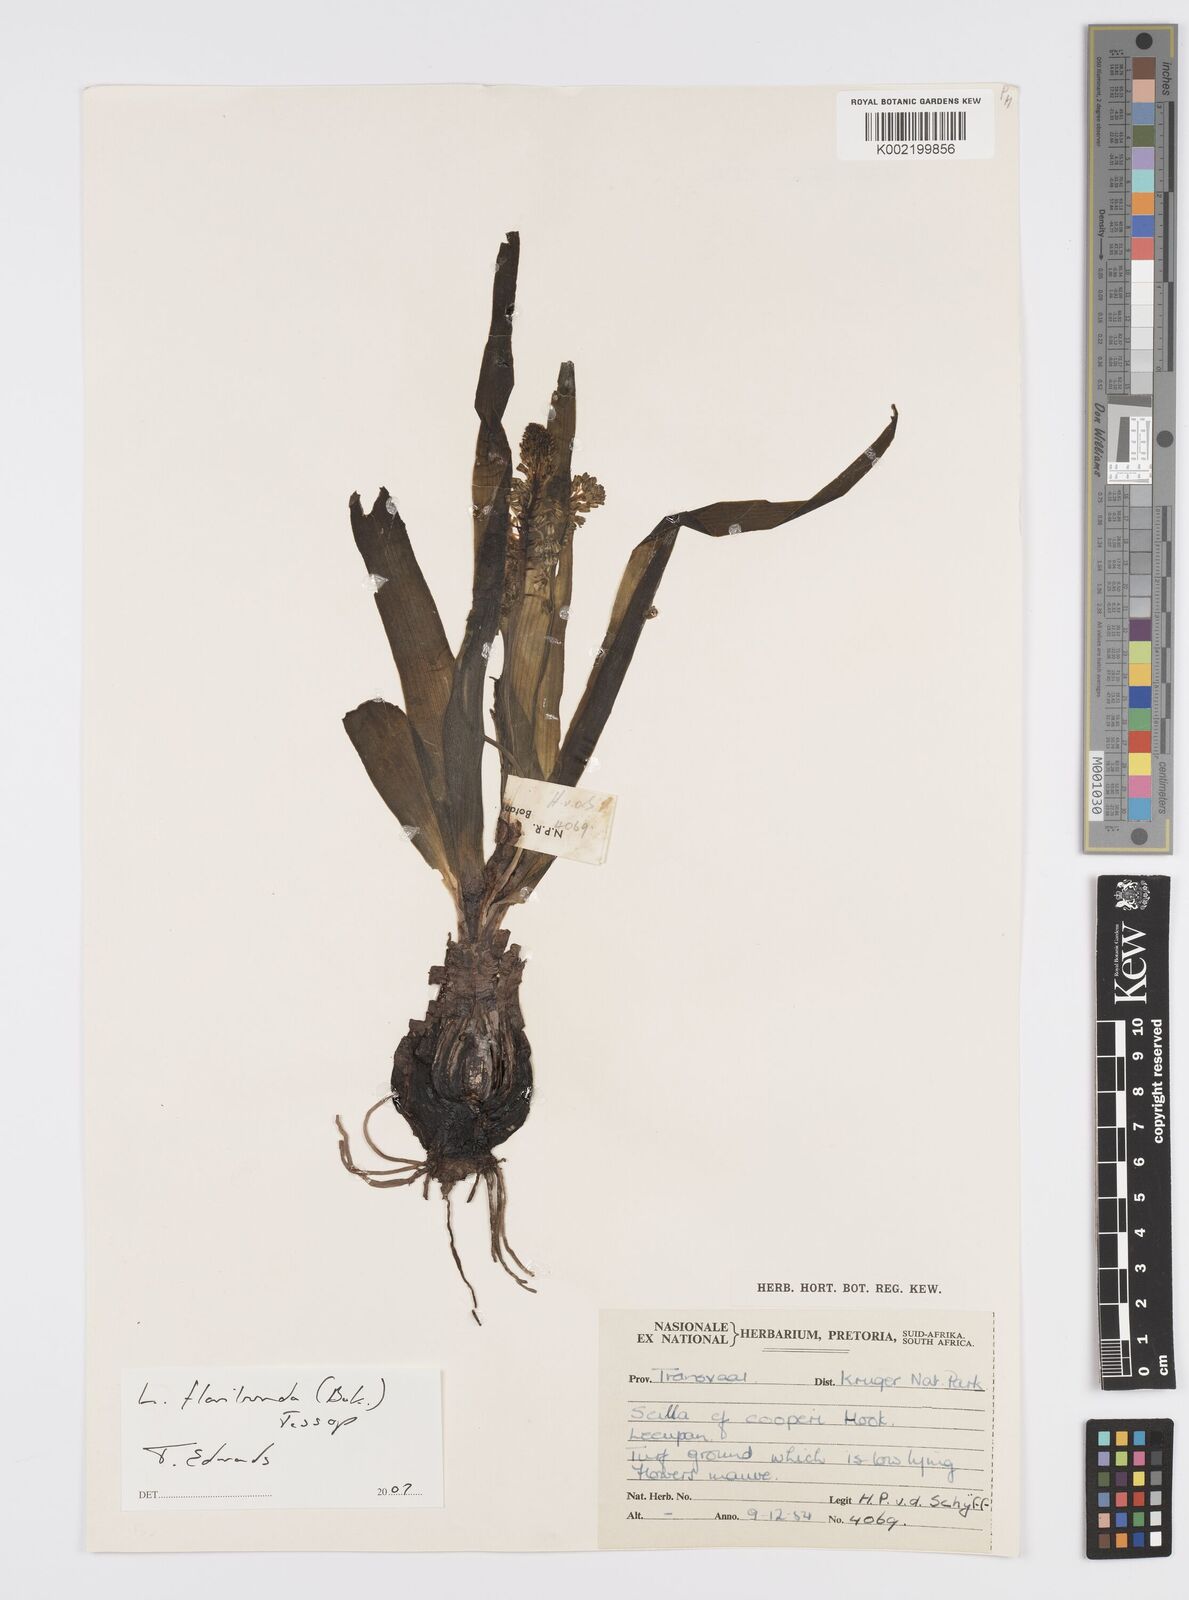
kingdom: Plantae
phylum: Tracheophyta
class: Liliopsida
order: Asparagales
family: Asparagaceae
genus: Ledebouria
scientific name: Ledebouria floribunda
